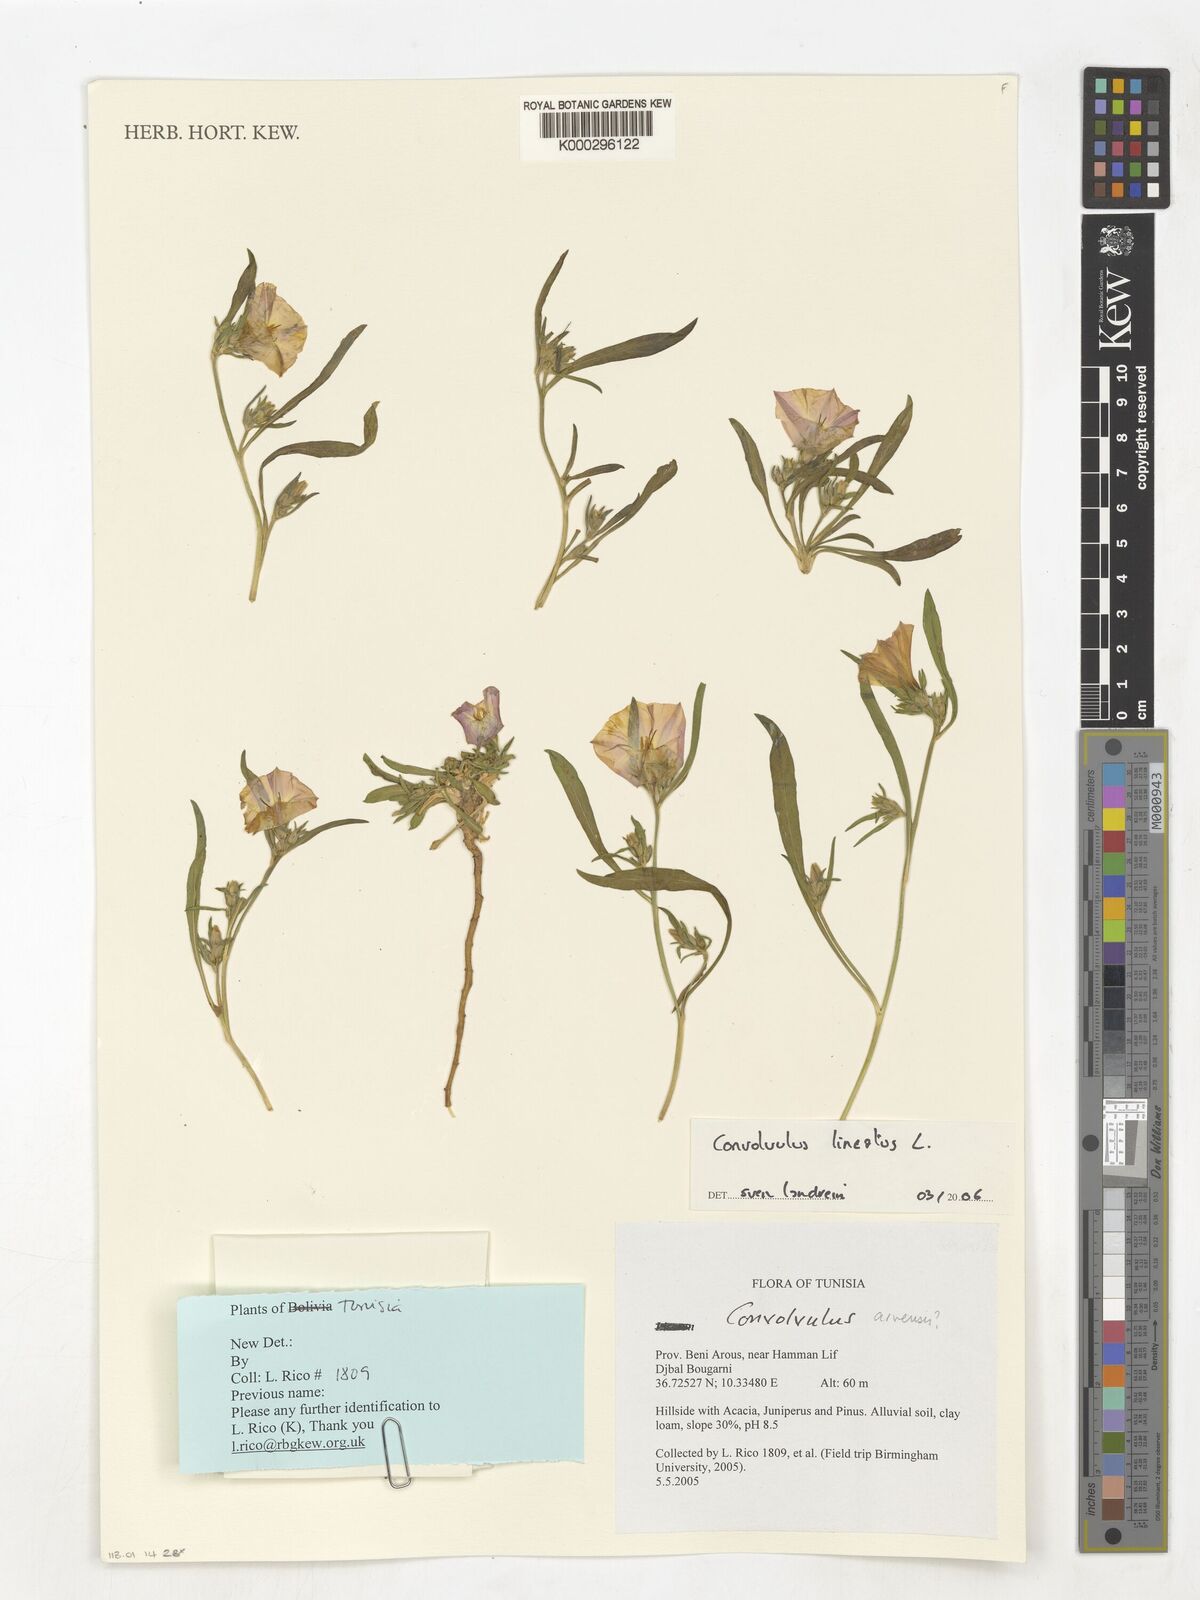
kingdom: Plantae
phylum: Tracheophyta
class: Magnoliopsida
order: Solanales
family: Convolvulaceae
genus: Convolvulus
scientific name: Convolvulus lineatus
